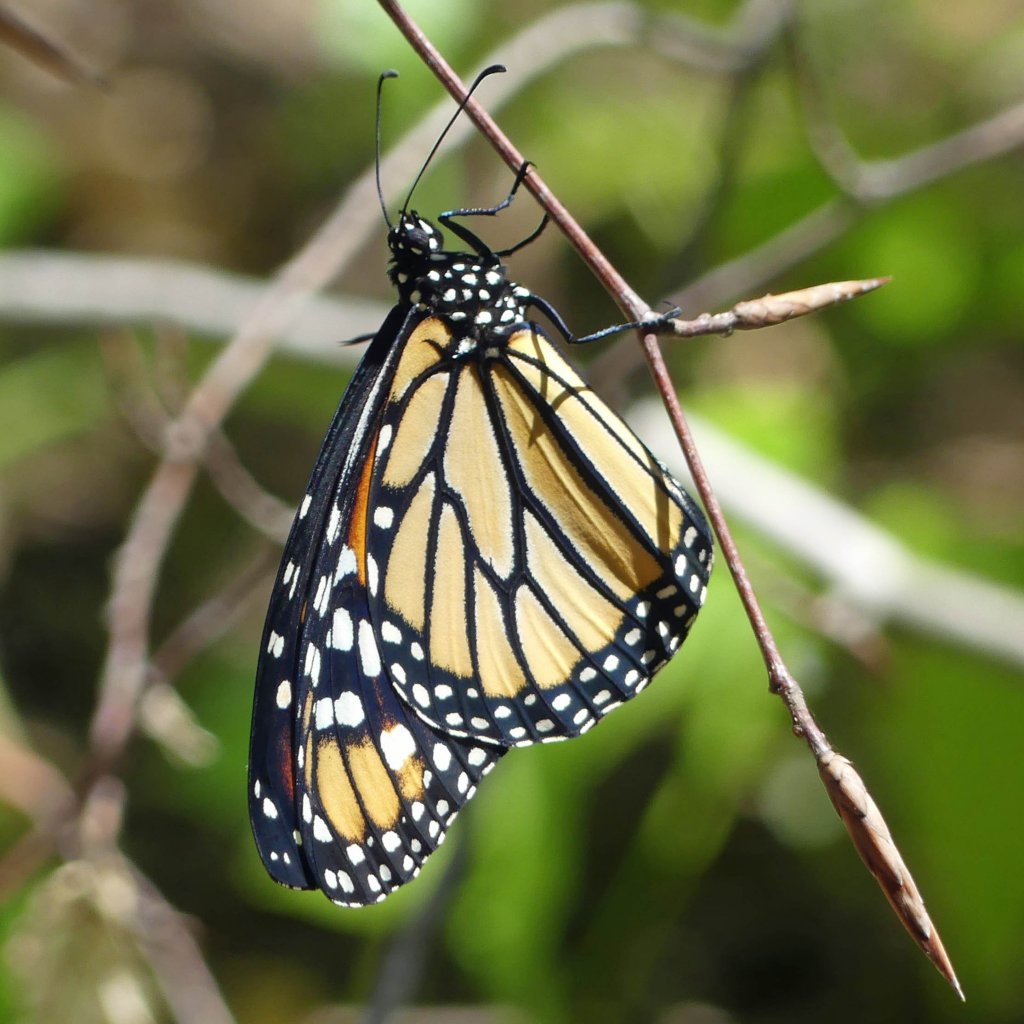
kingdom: Animalia
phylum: Arthropoda
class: Insecta
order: Lepidoptera
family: Nymphalidae
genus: Danaus
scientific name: Danaus plexippus
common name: Monarch
